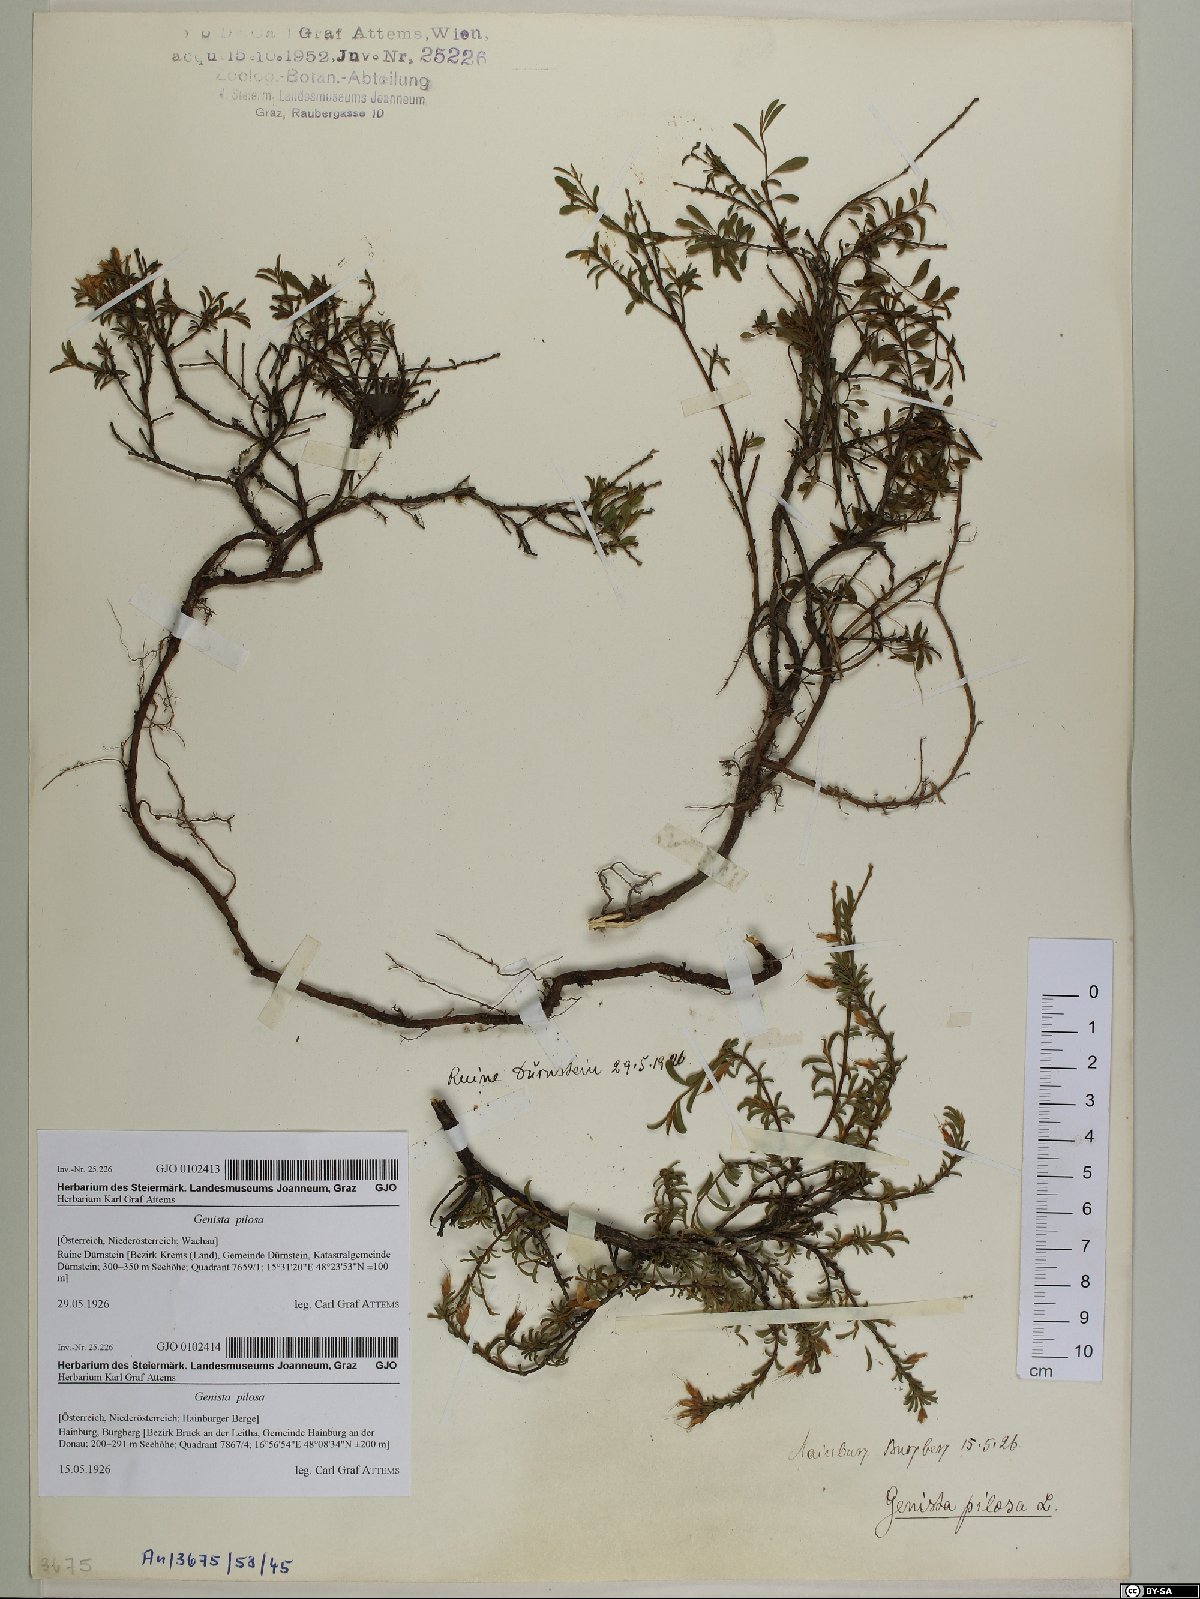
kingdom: Plantae
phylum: Tracheophyta
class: Magnoliopsida
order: Fabales
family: Fabaceae
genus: Genista
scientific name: Genista pilosa
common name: Hairy greenweed
